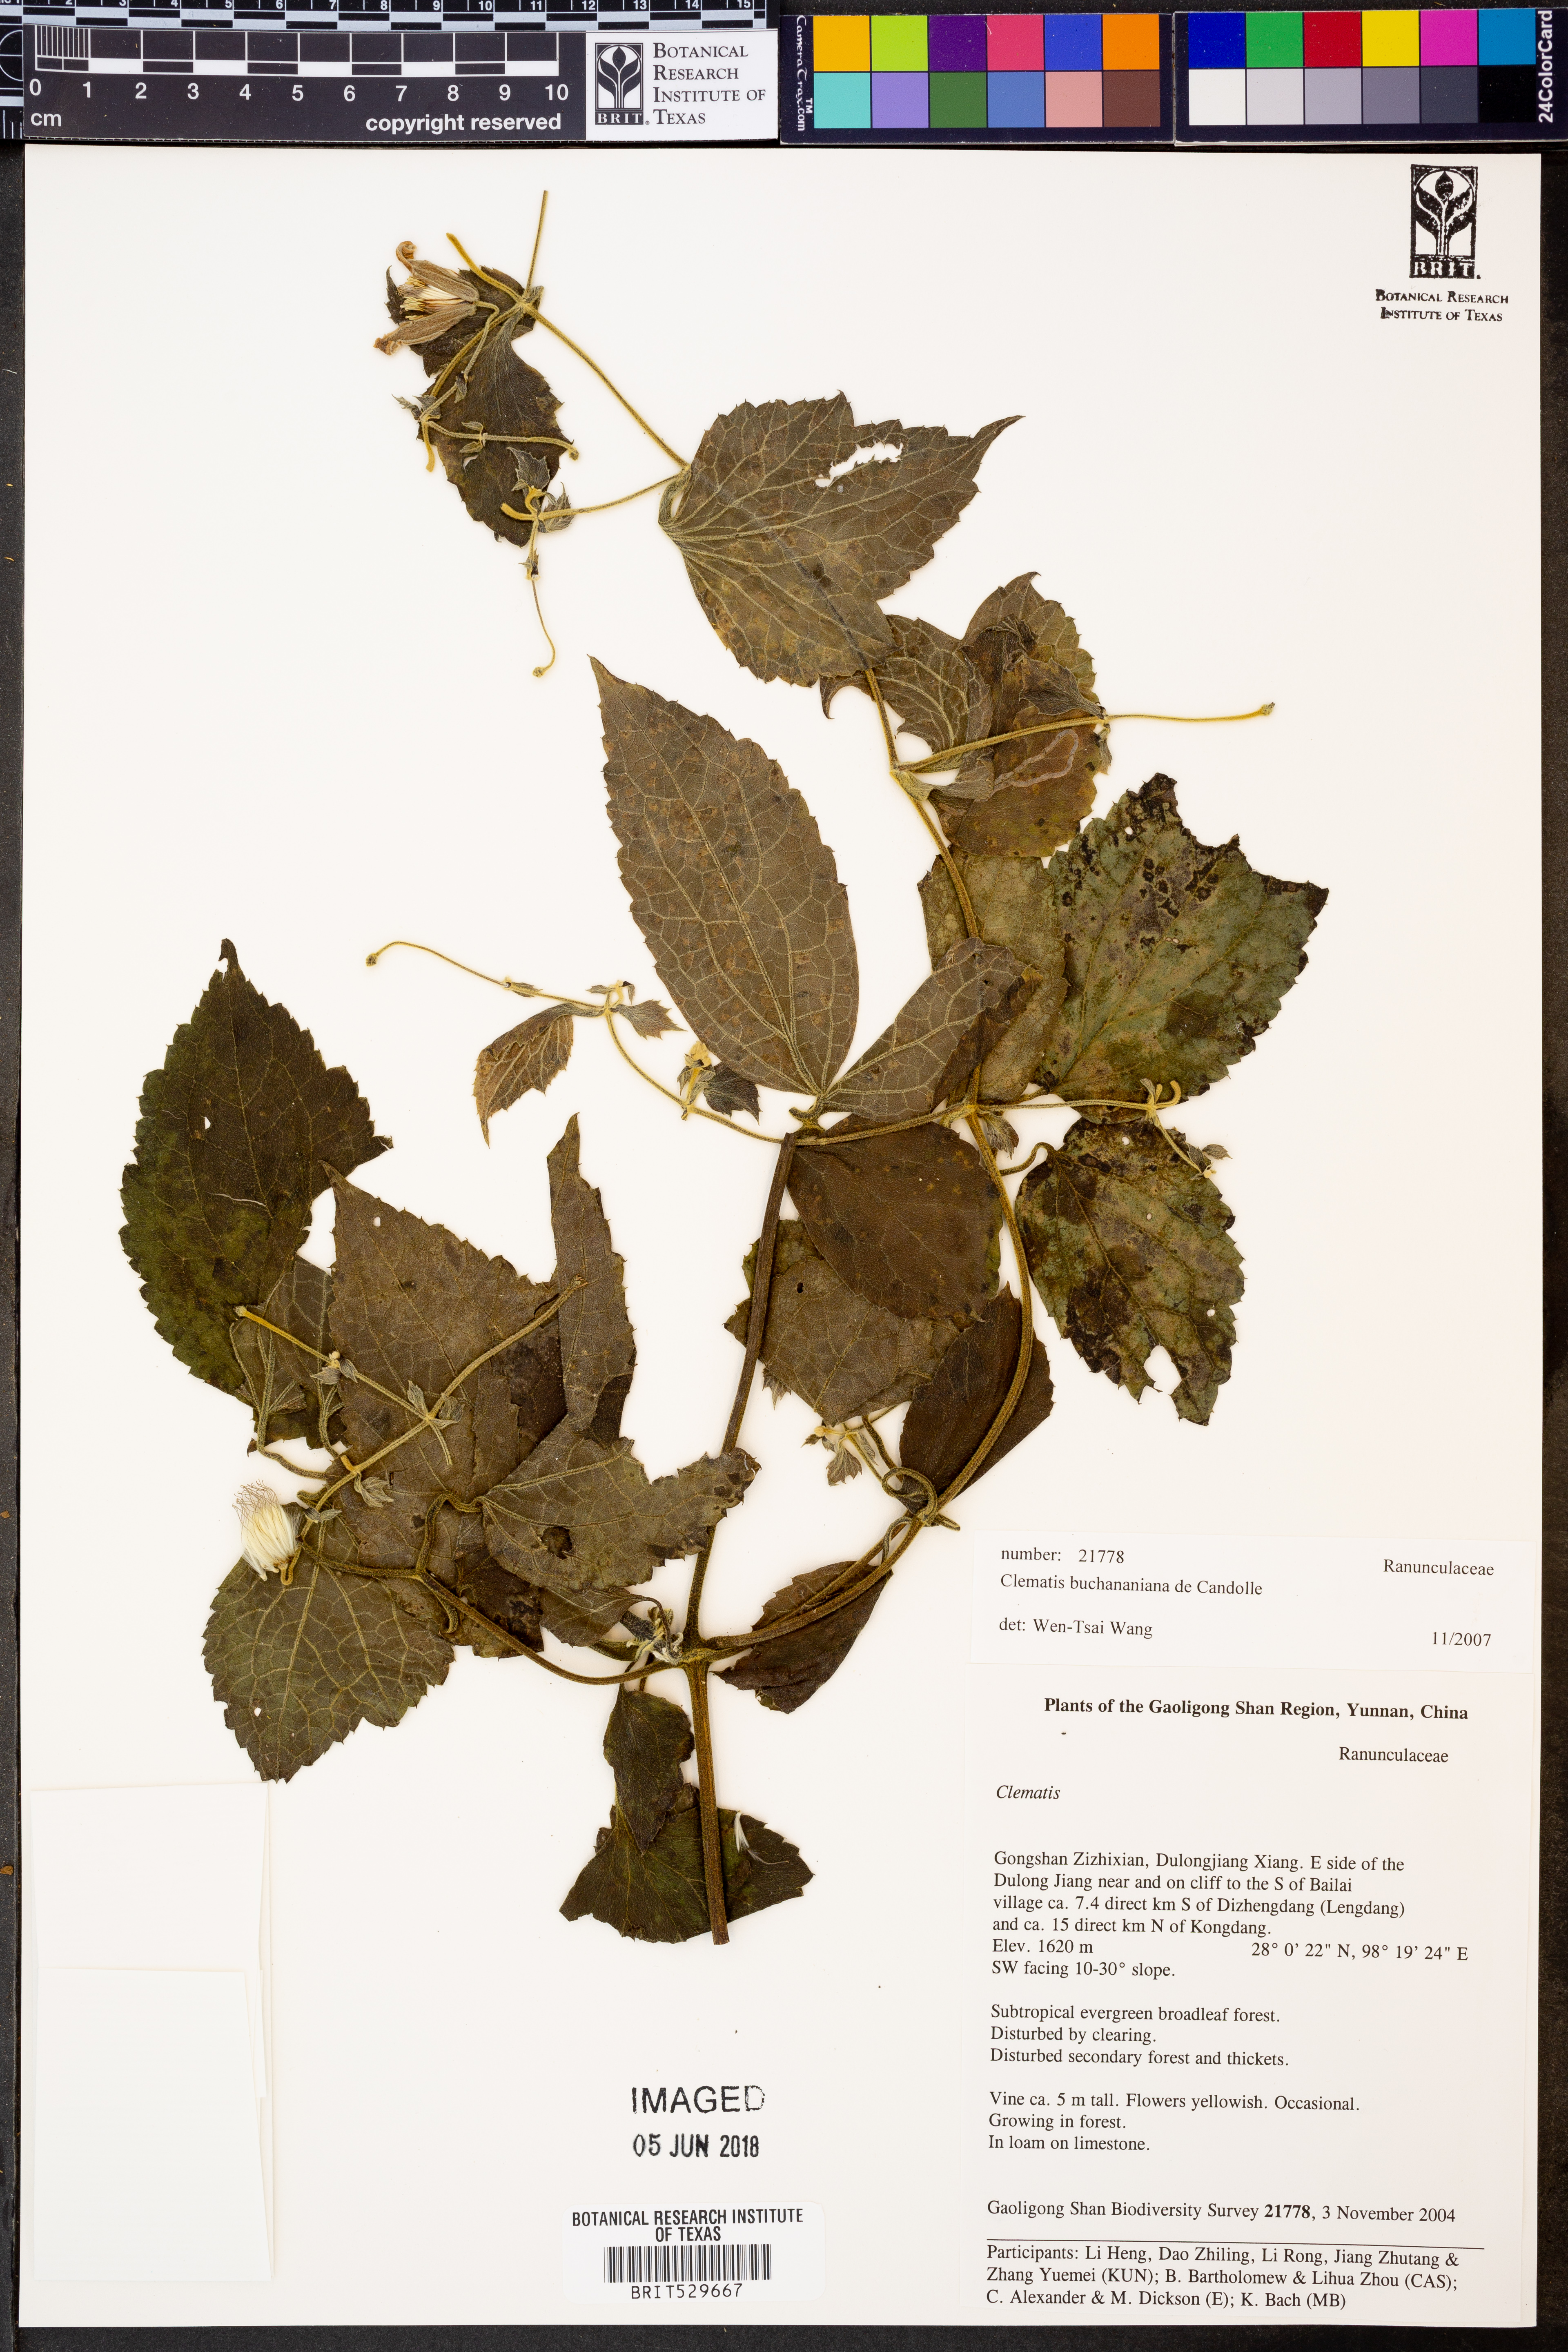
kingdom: Plantae
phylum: Tracheophyta
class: Magnoliopsida
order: Ranunculales
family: Ranunculaceae
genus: Clematis
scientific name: Clematis buchananiana
